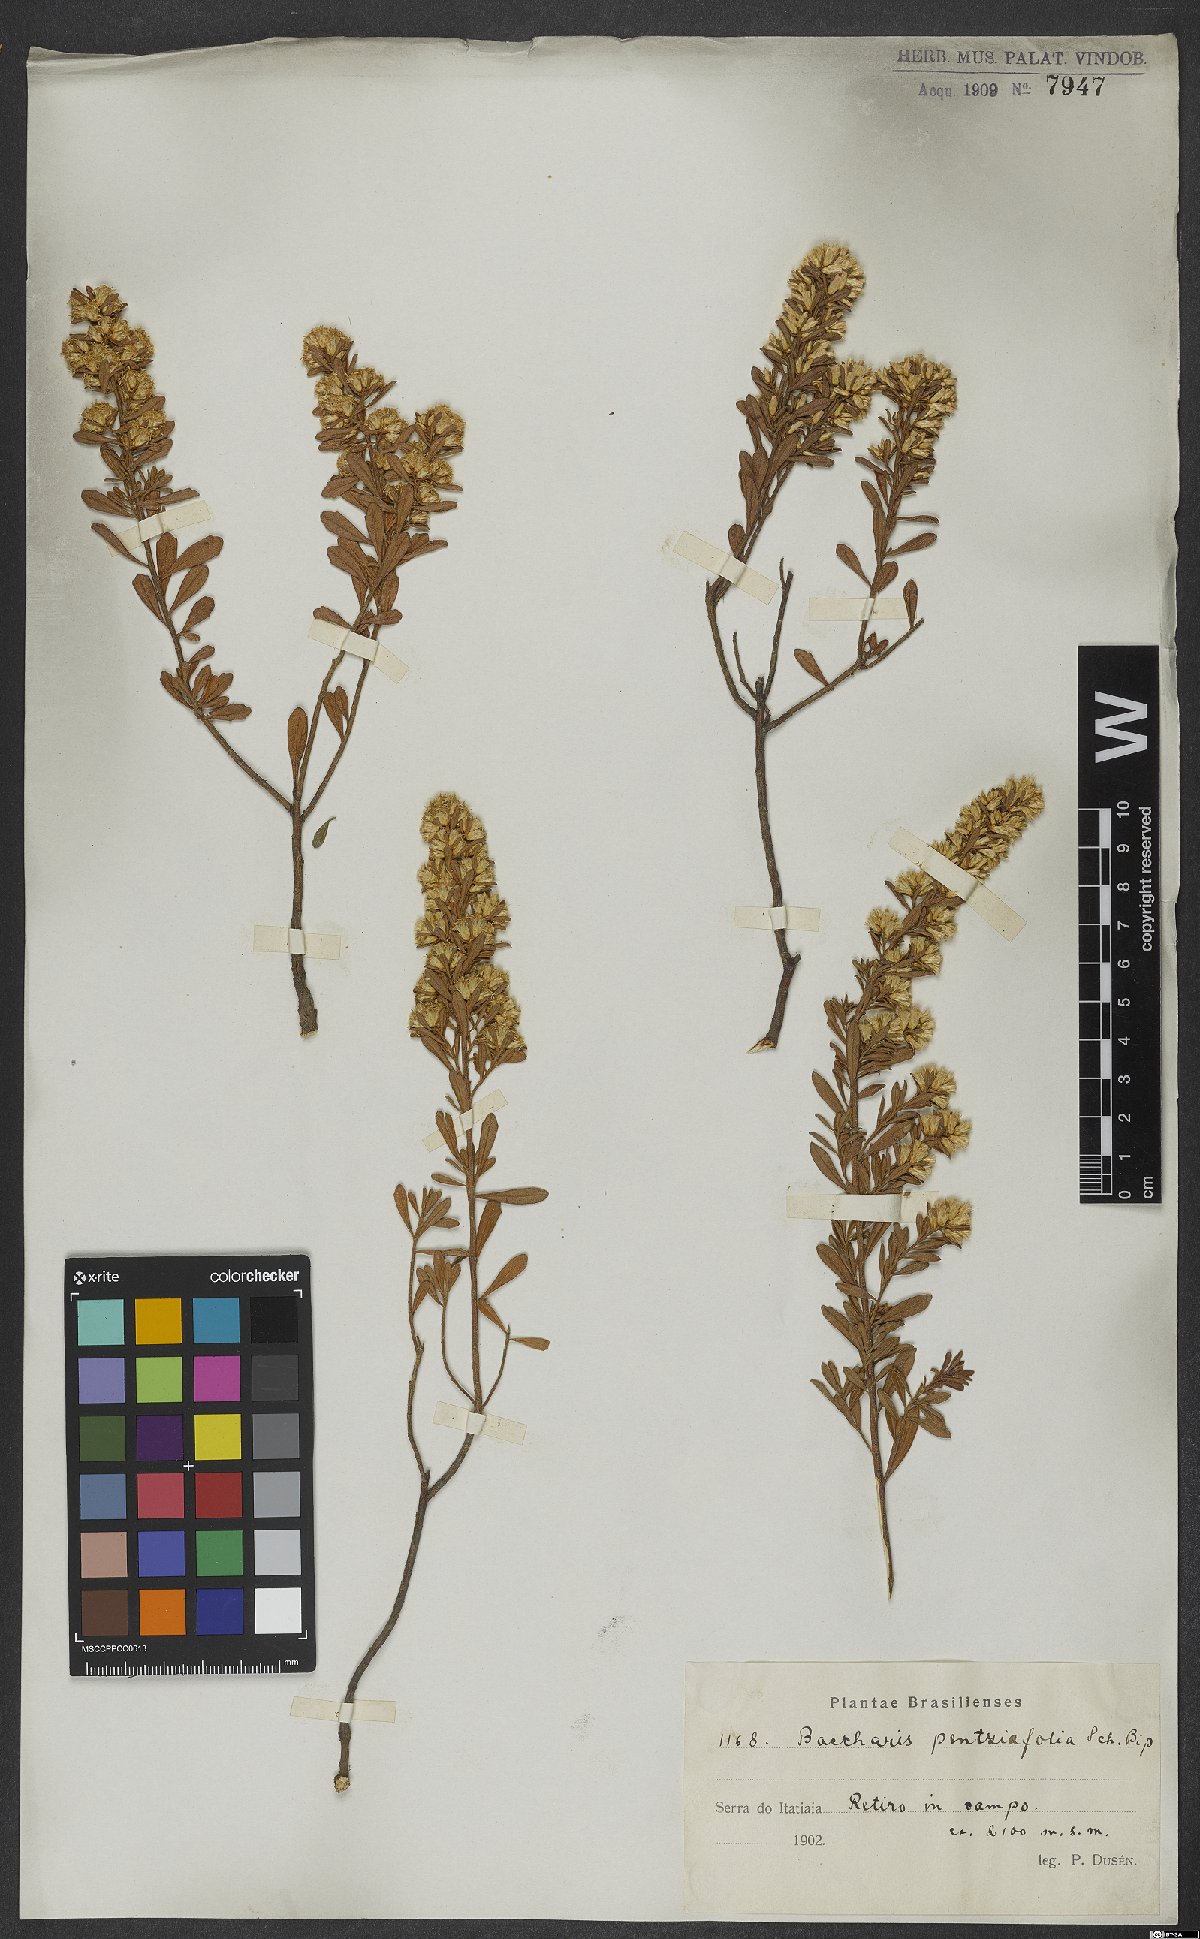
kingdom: Plantae
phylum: Tracheophyta
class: Magnoliopsida
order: Asterales
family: Asteraceae
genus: Baccharis
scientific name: Baccharis pentziifolia
